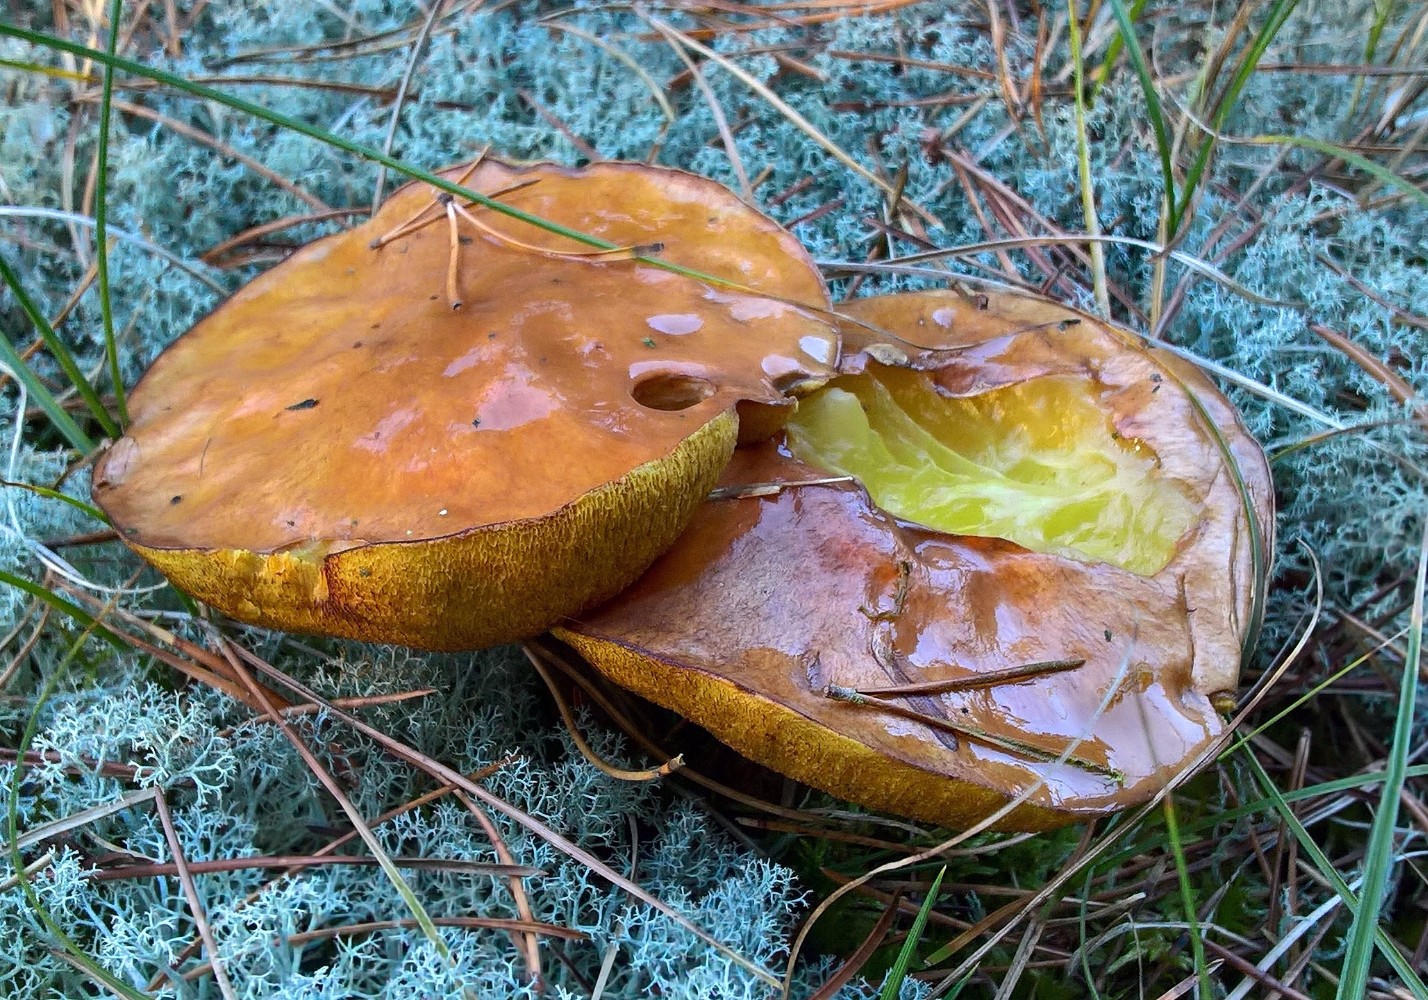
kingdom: Fungi
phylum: Basidiomycota
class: Agaricomycetes
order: Boletales
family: Suillaceae
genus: Suillus
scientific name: Suillus luteus
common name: brungul slimrørhat
